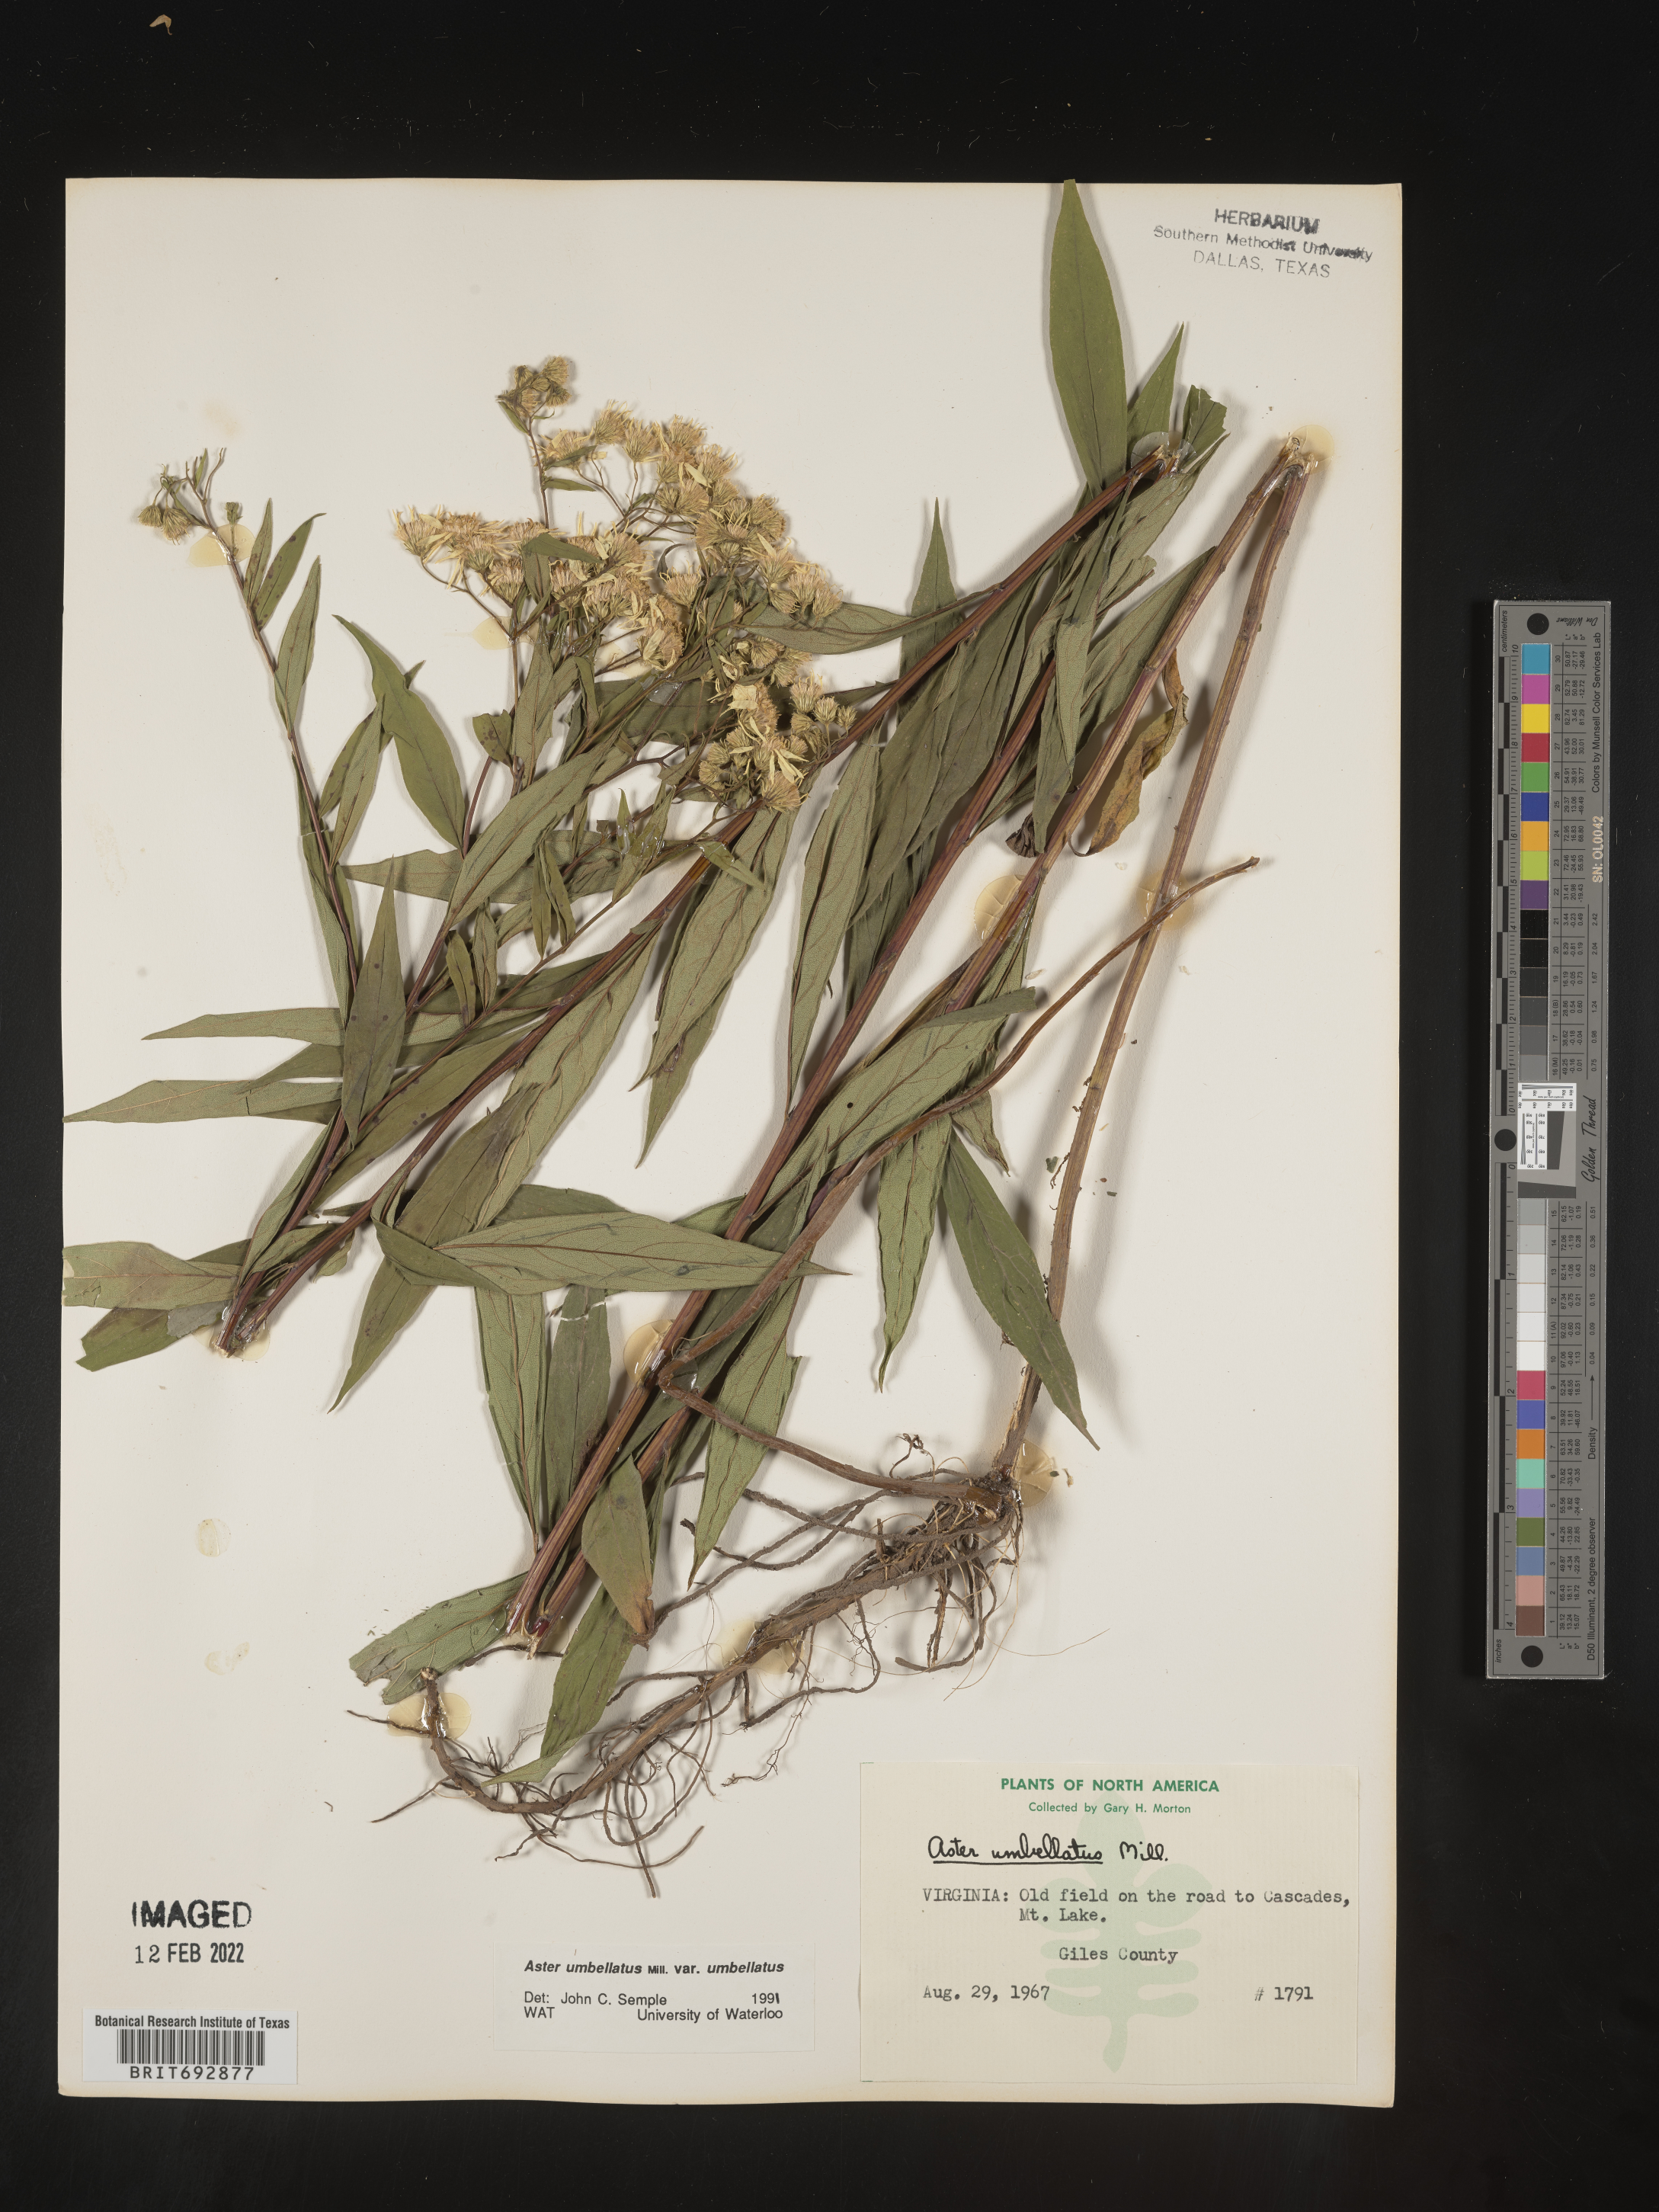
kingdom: Plantae
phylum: Tracheophyta
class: Magnoliopsida
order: Asterales
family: Asteraceae
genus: Doellingeria
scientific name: Doellingeria umbellata
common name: Flat-top white aster
